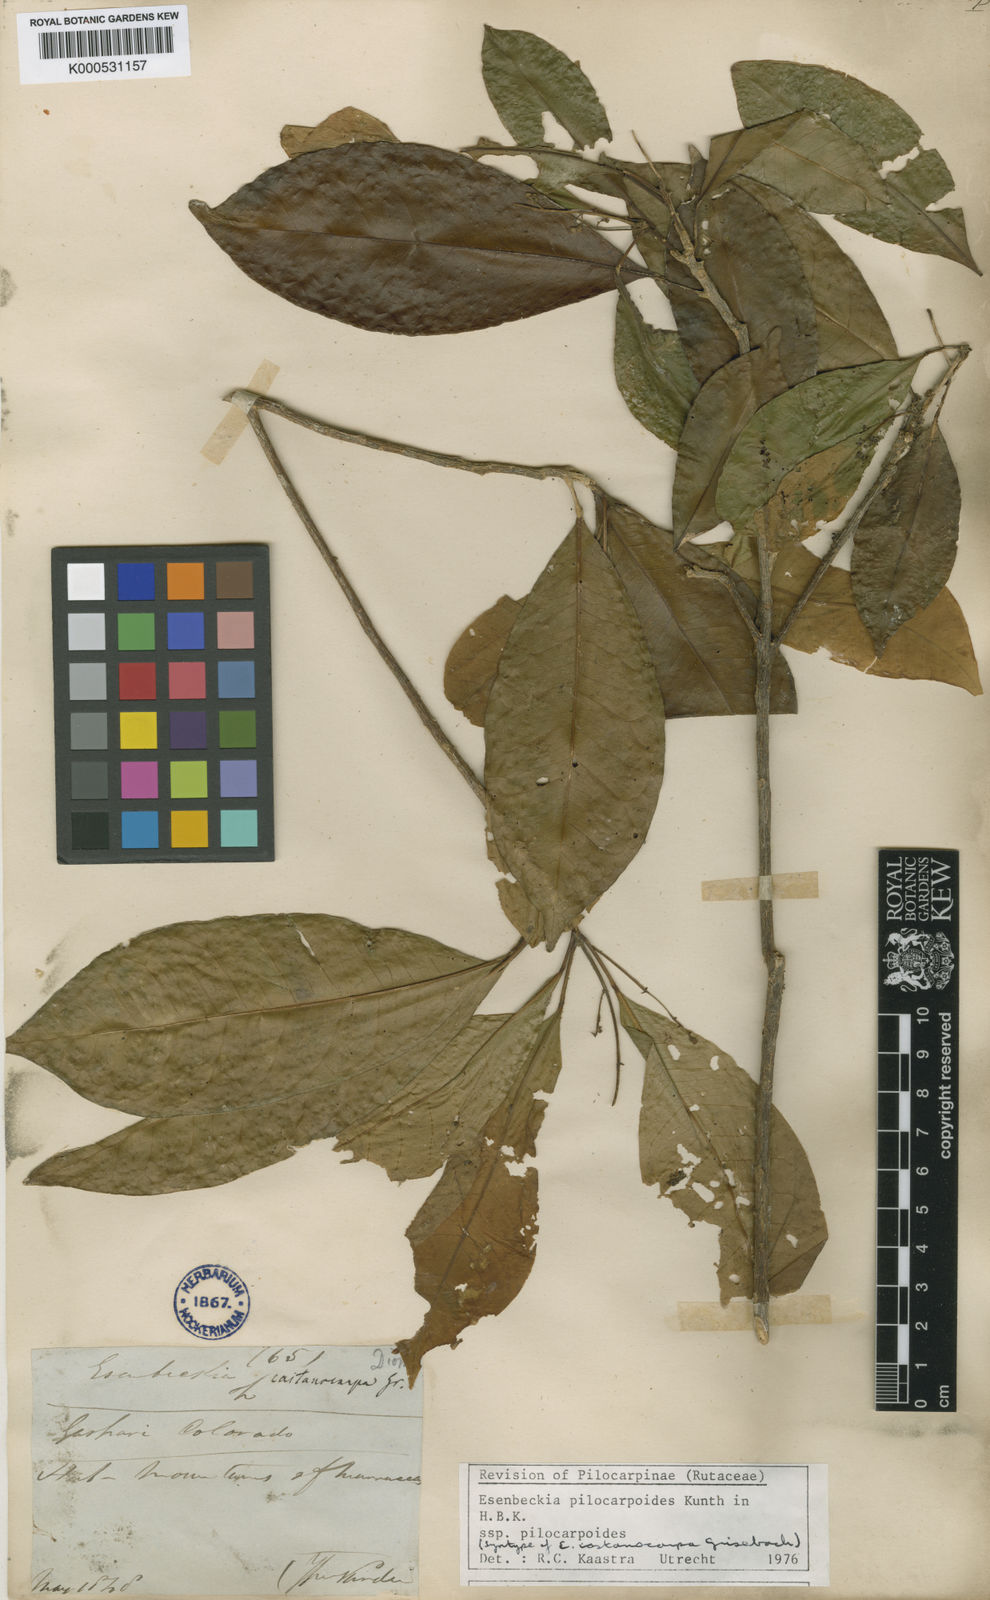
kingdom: Plantae
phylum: Tracheophyta
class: Magnoliopsida
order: Sapindales
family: Rutaceae
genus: Esenbeckia
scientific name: Esenbeckia pilocarpoides
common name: Pilosefruit esenbeckia
